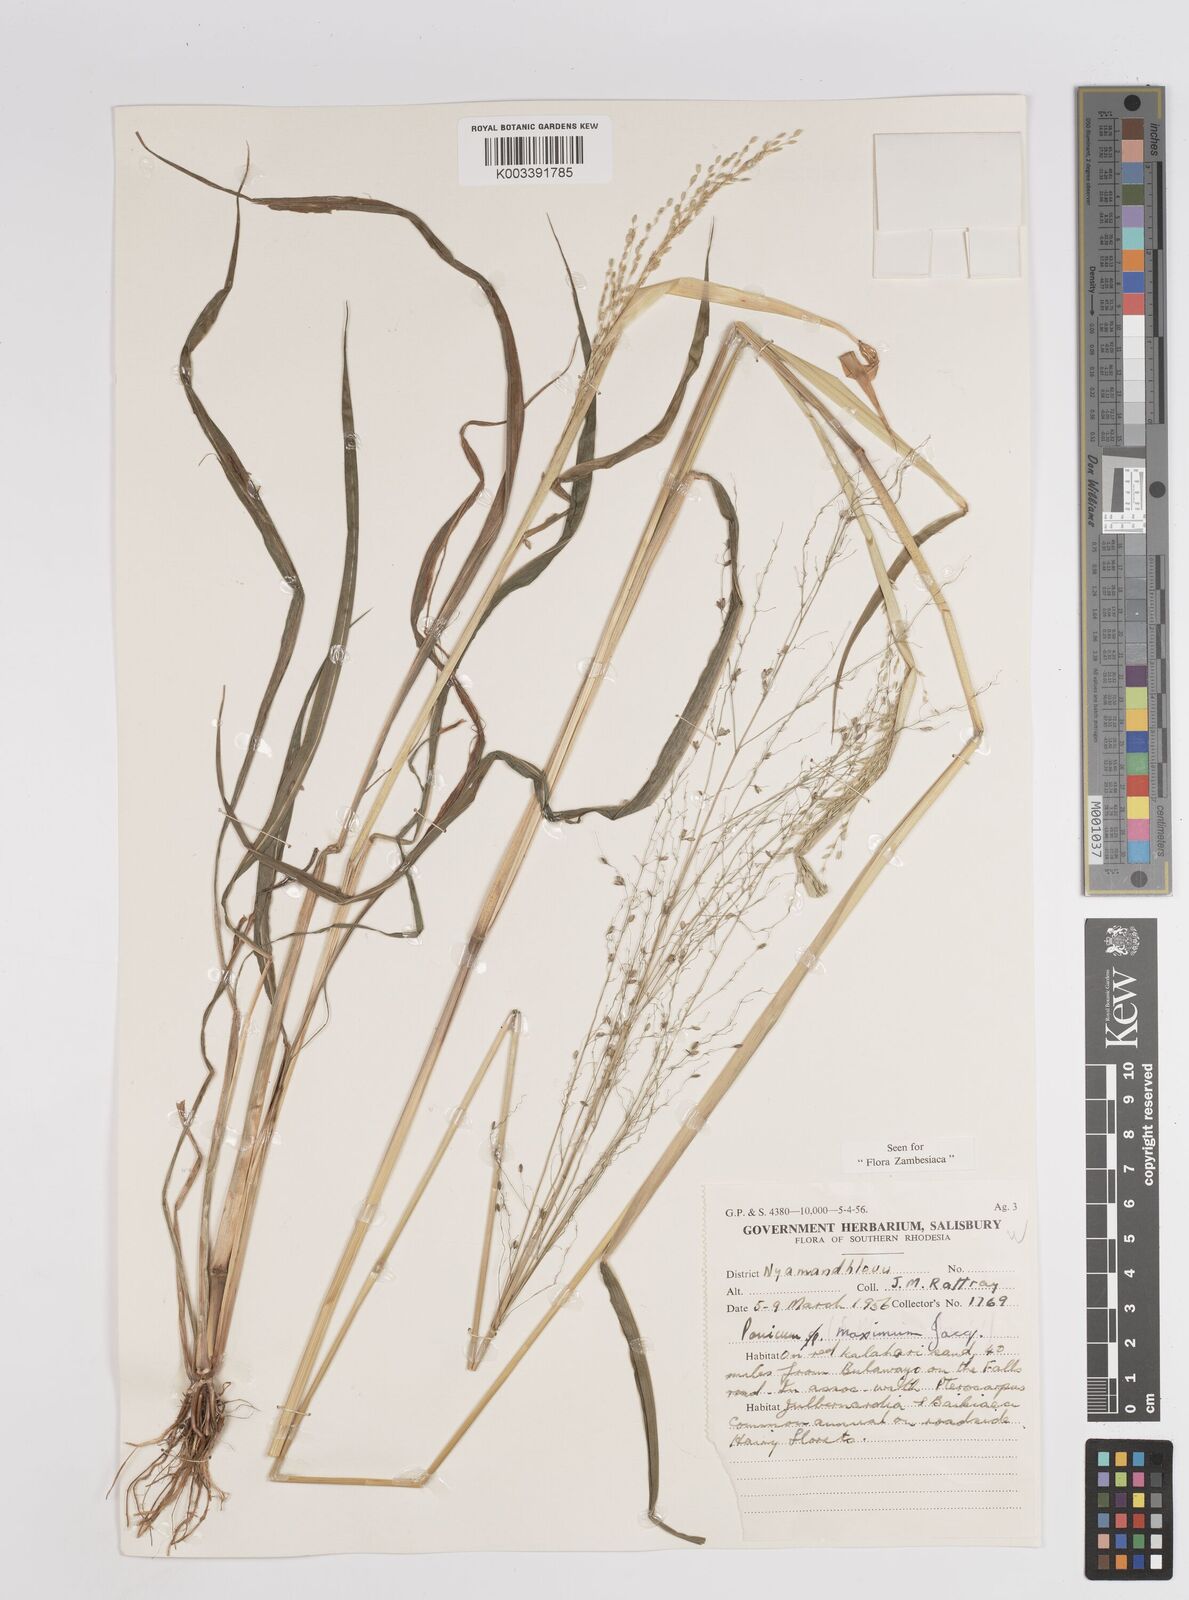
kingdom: Plantae
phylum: Tracheophyta
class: Liliopsida
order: Poales
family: Poaceae
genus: Megathyrsus
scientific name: Megathyrsus maximus
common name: Guineagrass
